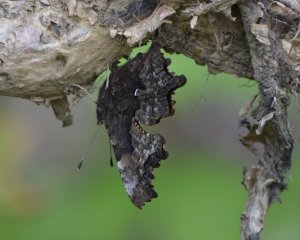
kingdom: Animalia
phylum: Arthropoda
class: Insecta
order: Lepidoptera
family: Nymphalidae
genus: Polygonia
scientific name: Polygonia gracilis
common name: Hoary Comma
